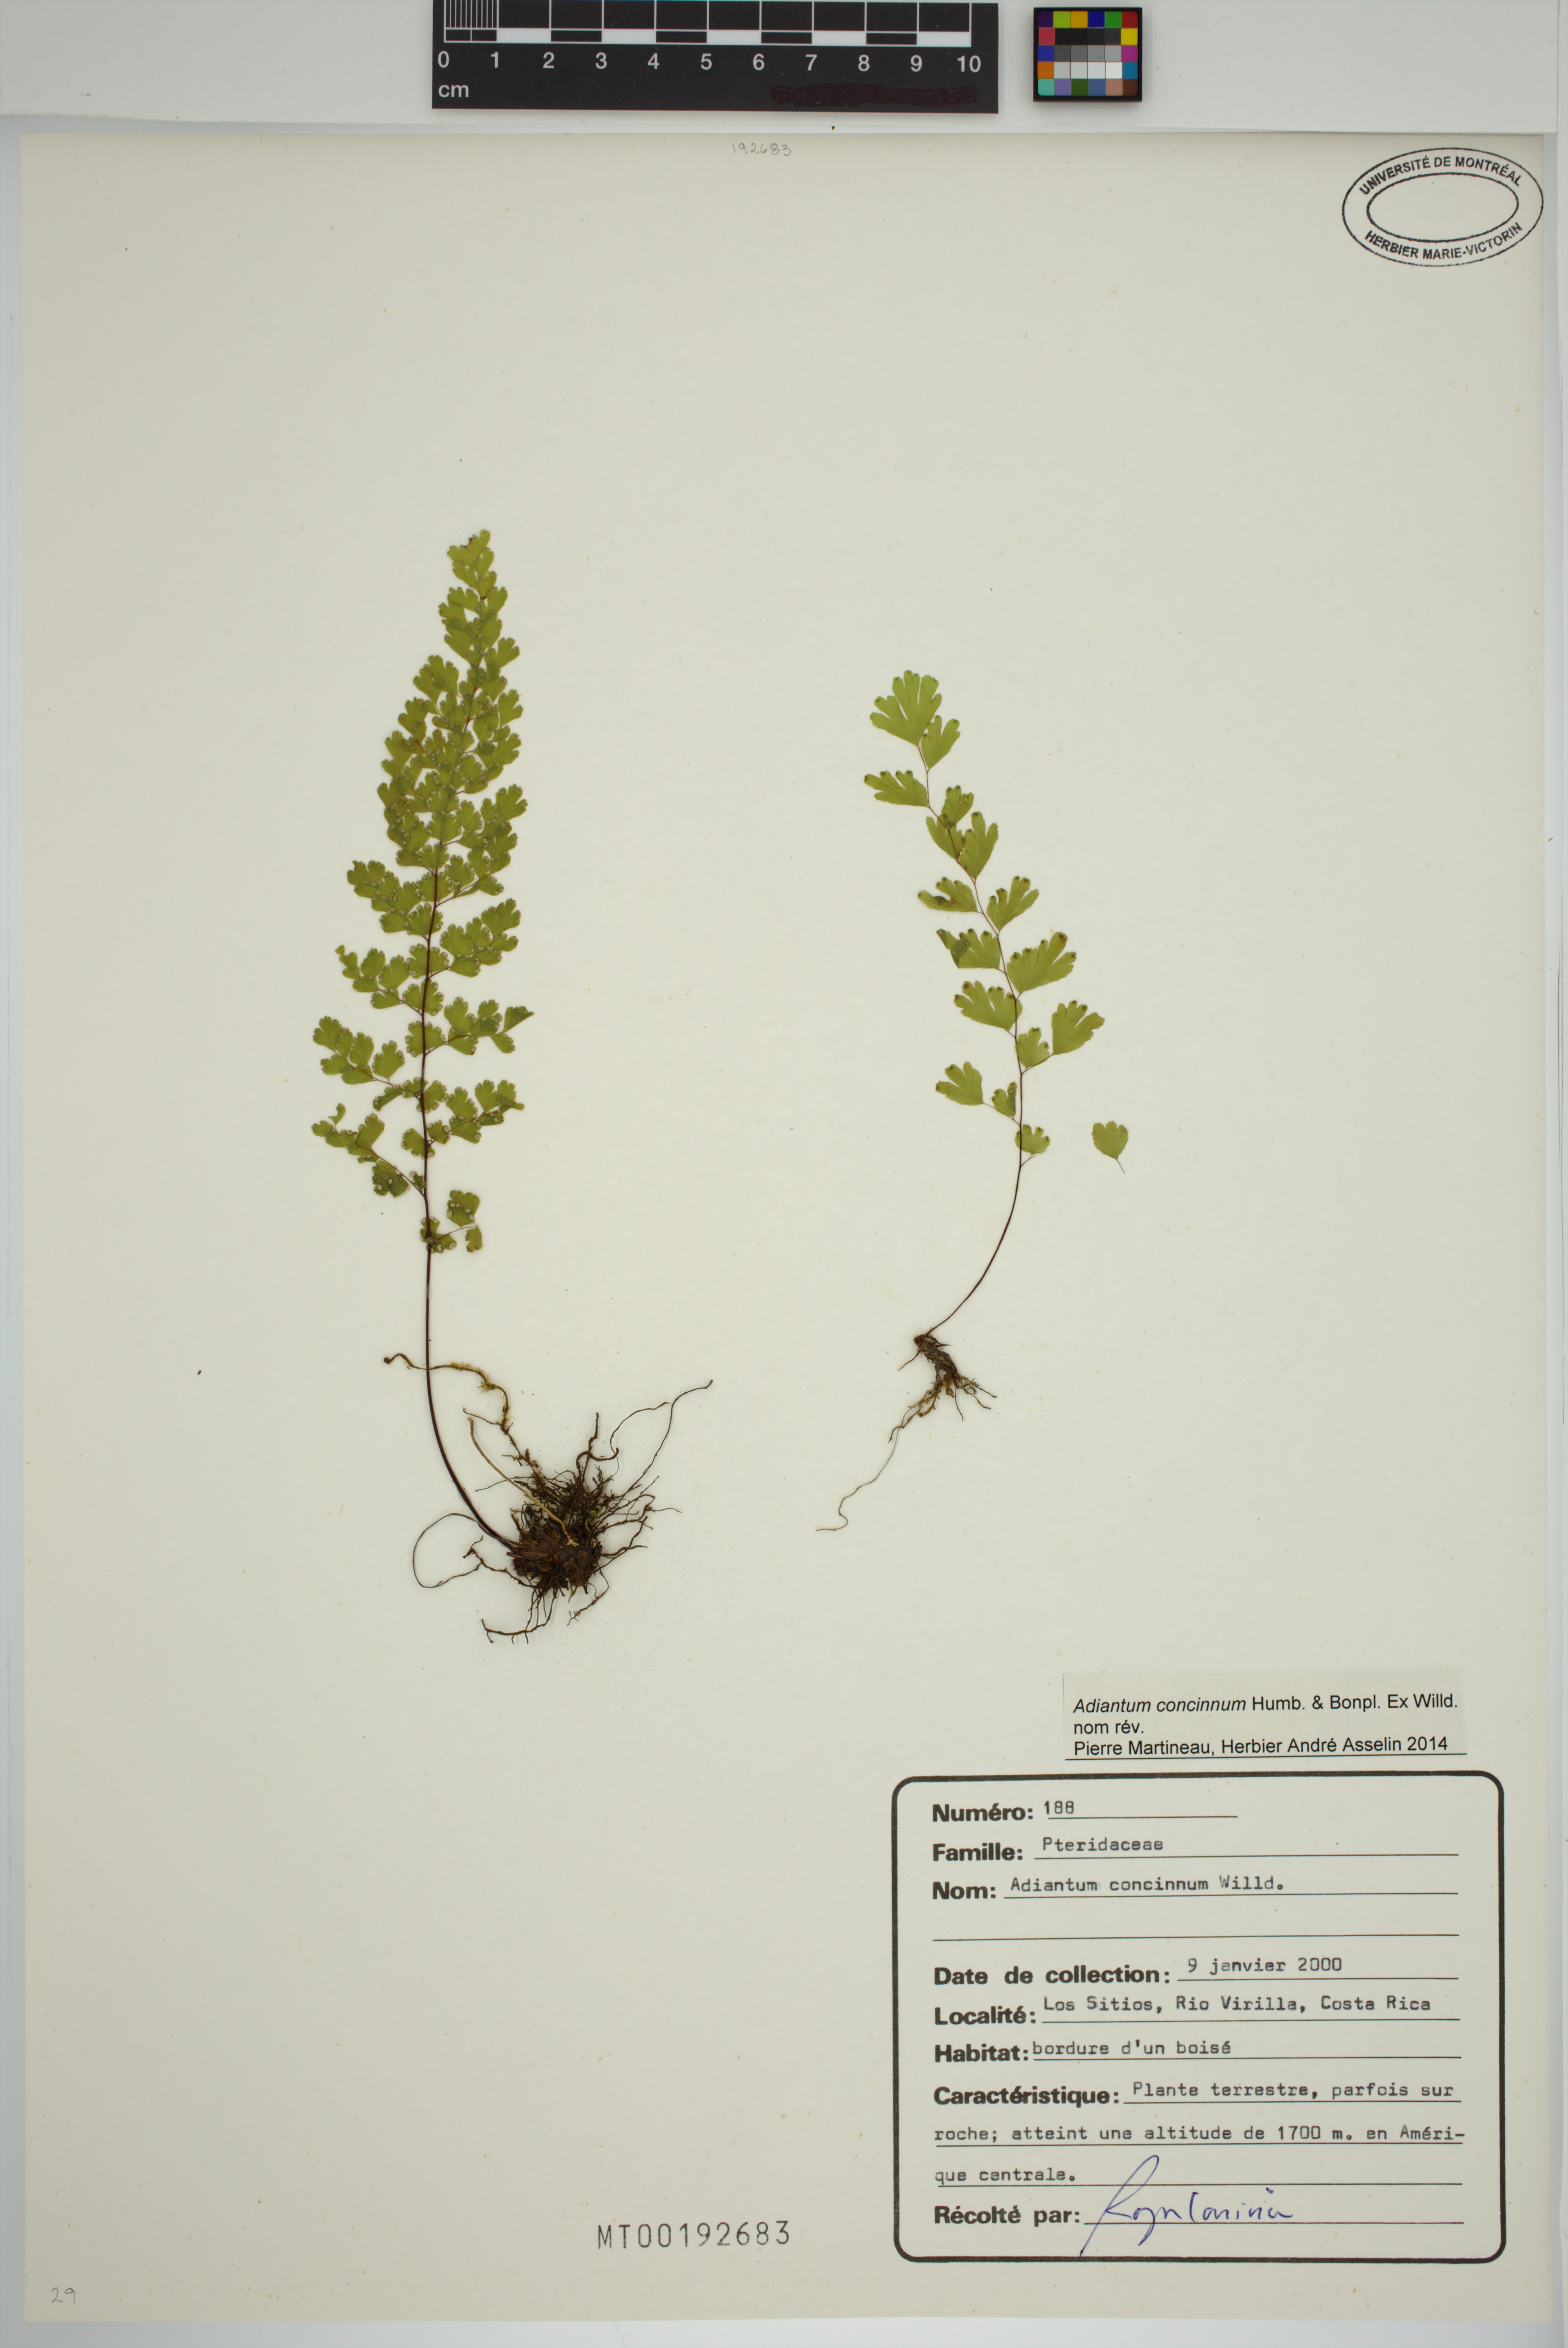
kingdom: Plantae
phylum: Tracheophyta
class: Polypodiopsida
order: Polypodiales
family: Pteridaceae
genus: Adiantum
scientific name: Adiantum concinnum
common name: Brittle maidenhair fern
